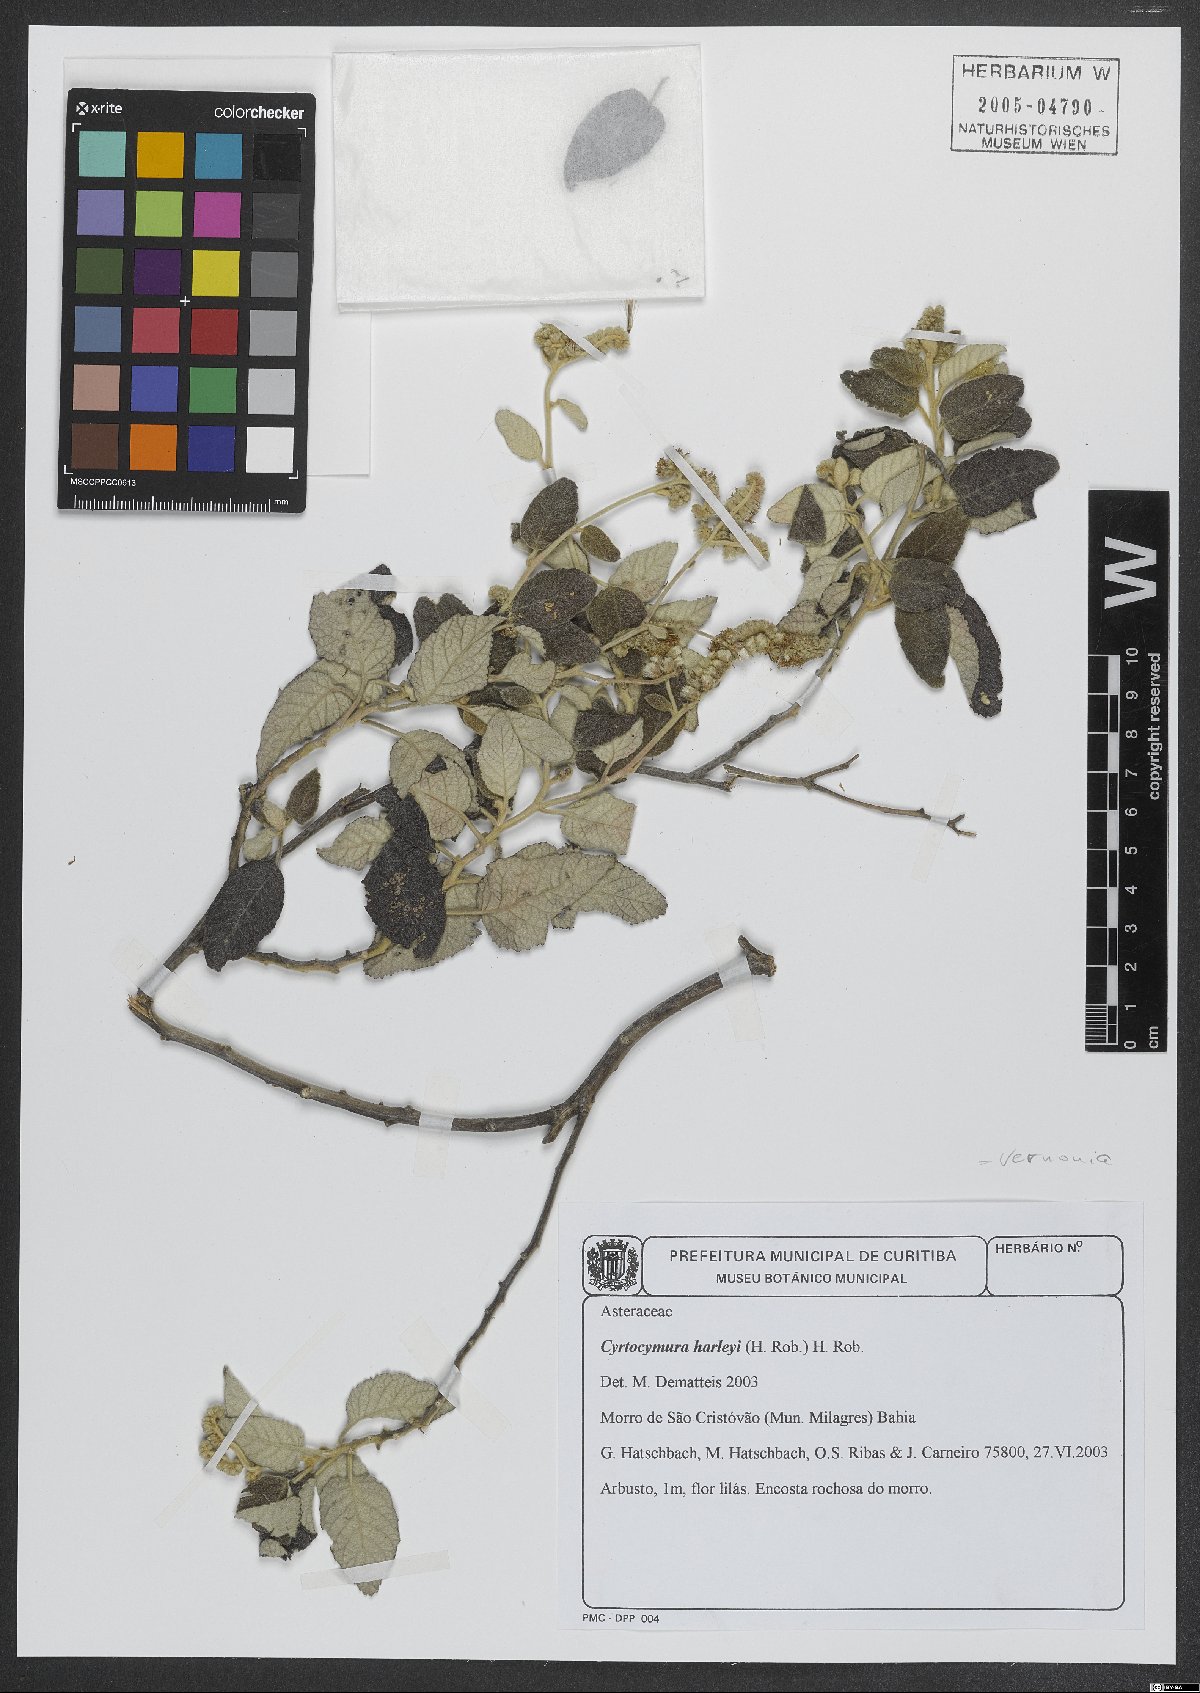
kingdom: Plantae
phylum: Tracheophyta
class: Magnoliopsida
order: Asterales
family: Asteraceae
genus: Cyrtocymura
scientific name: Cyrtocymura harleyi
